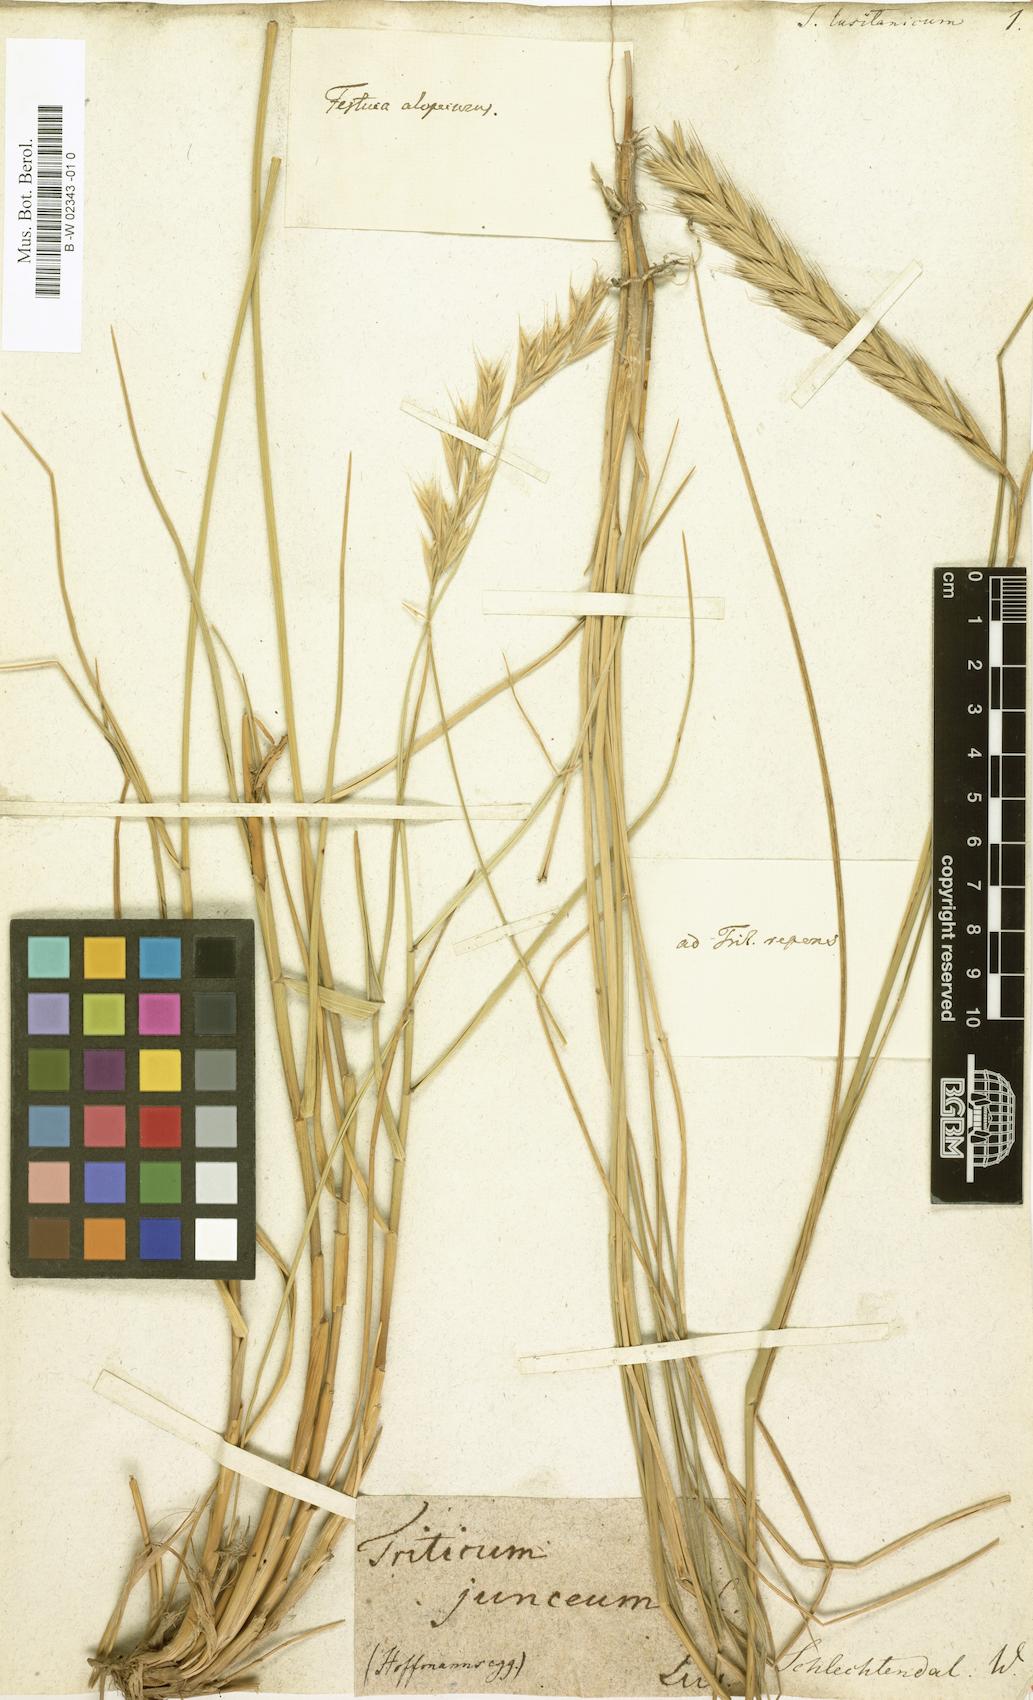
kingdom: Plantae
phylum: Tracheophyta
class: Liliopsida
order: Poales
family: Poaceae
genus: Triticum
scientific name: Triticum
